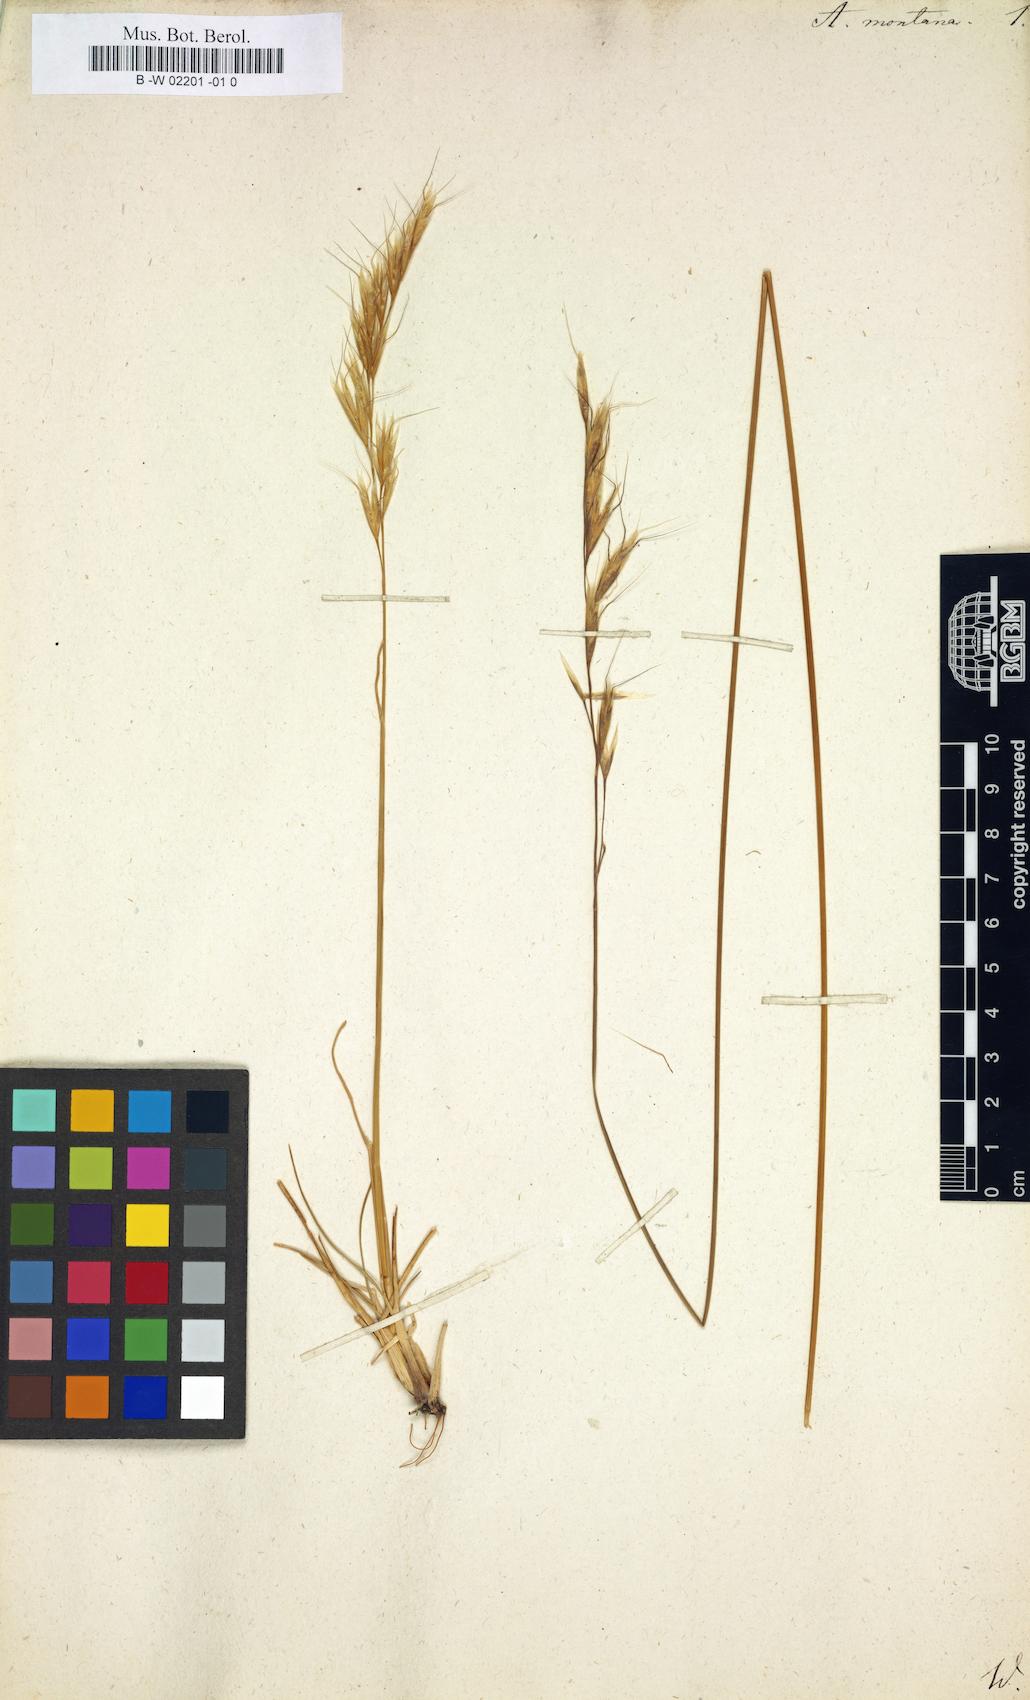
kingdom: Plantae
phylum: Tracheophyta
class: Liliopsida
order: Poales
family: Poaceae
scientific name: Poaceae
